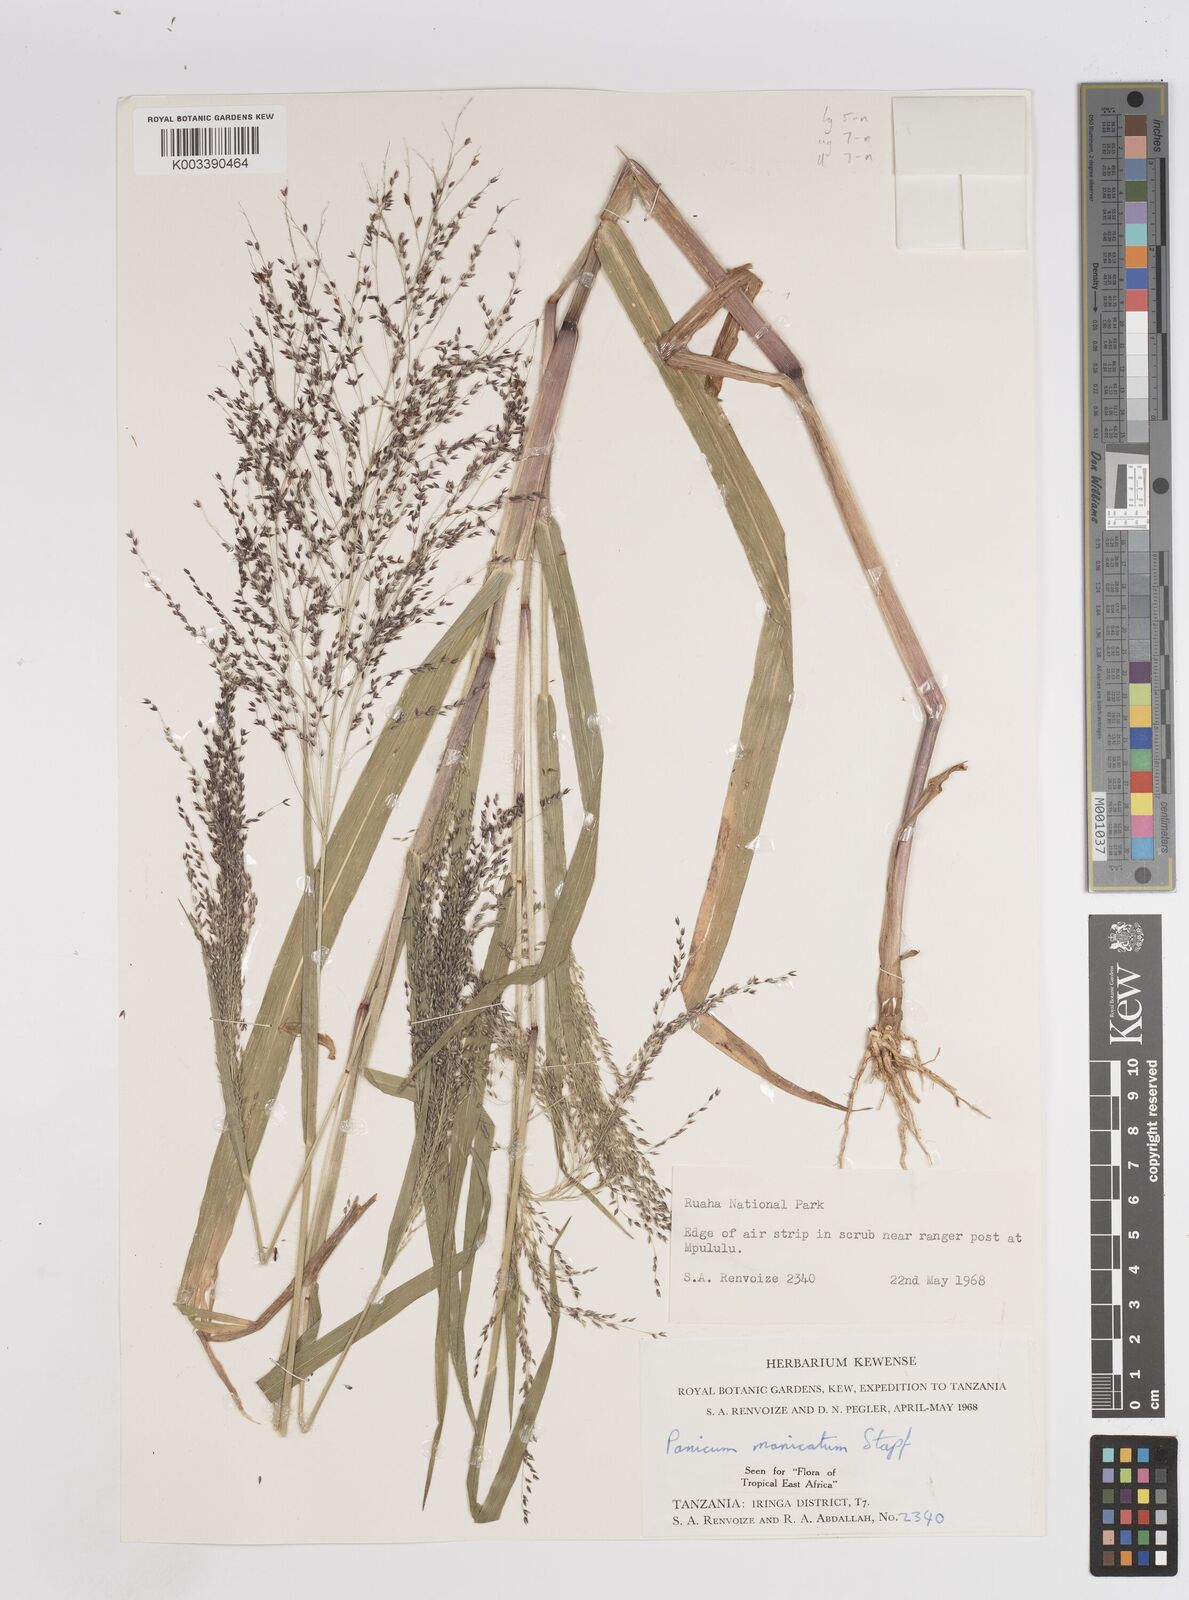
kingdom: Plantae
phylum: Tracheophyta
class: Liliopsida
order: Poales
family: Poaceae
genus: Panicum
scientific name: Panicum massaiense
